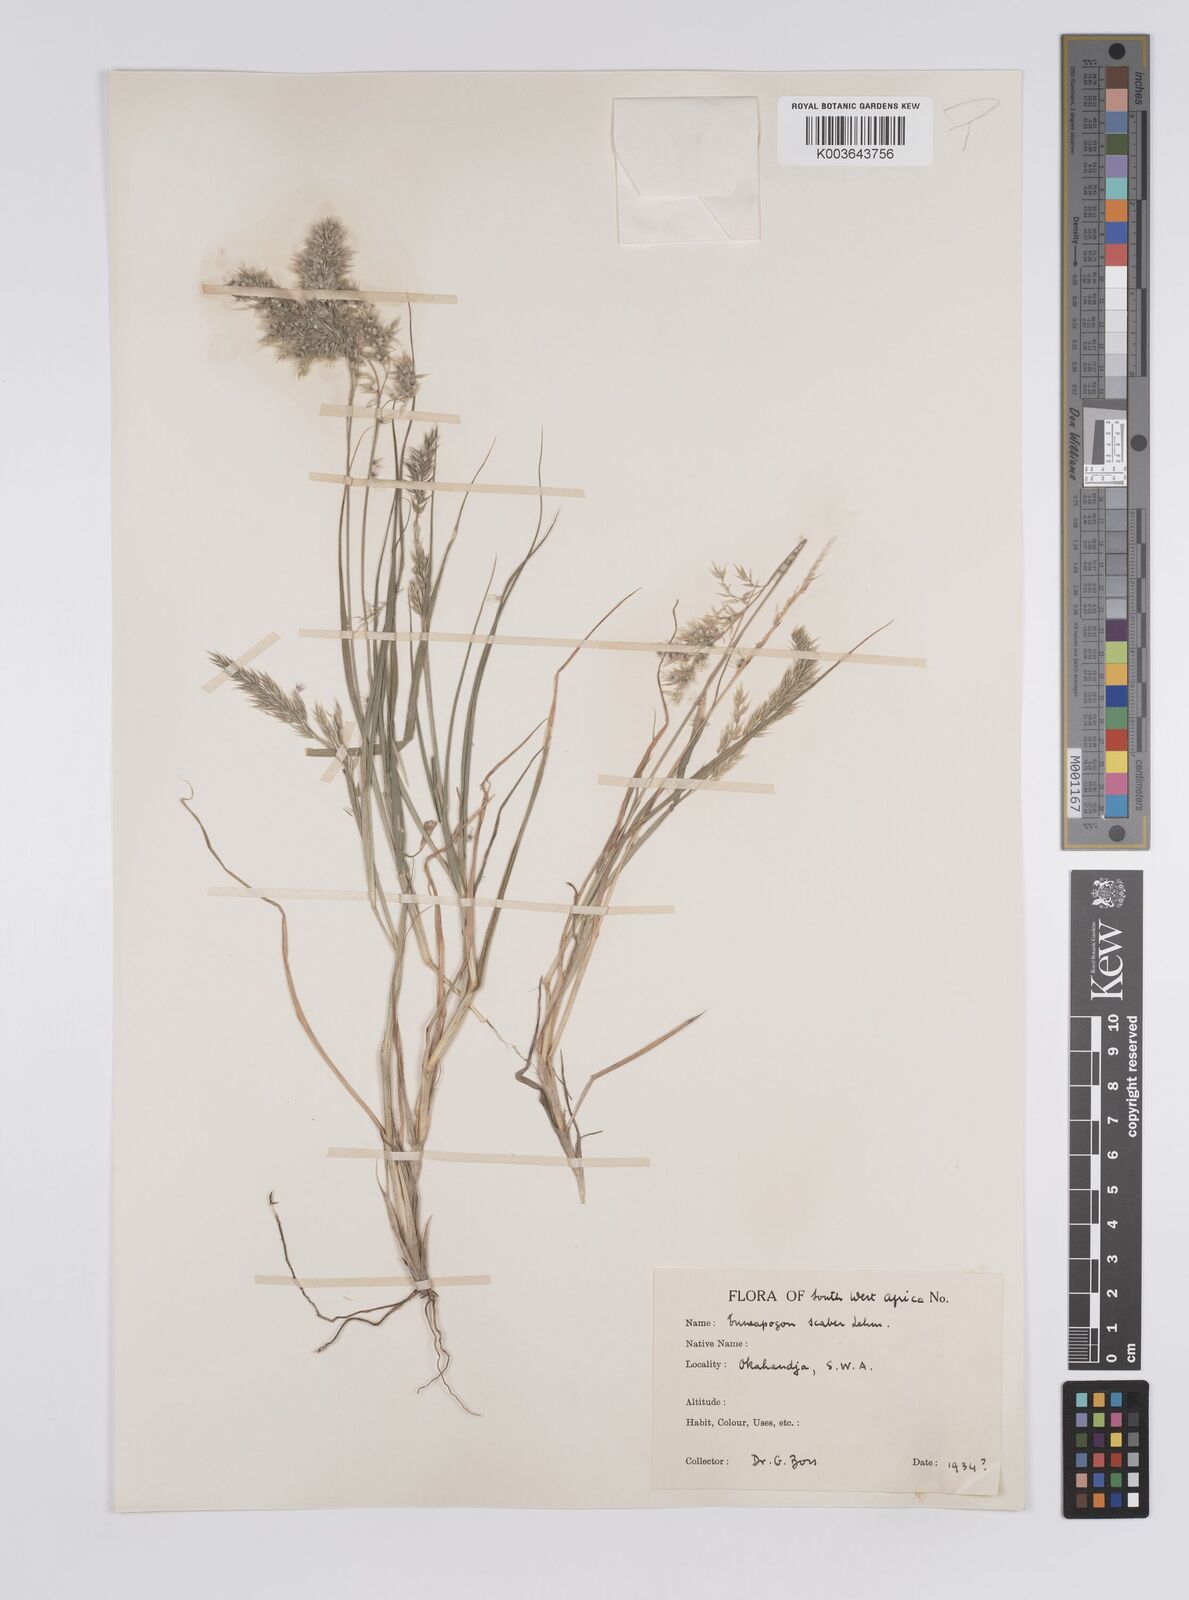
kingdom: Plantae
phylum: Tracheophyta
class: Liliopsida
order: Poales
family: Poaceae
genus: Enneapogon
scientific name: Enneapogon scaber
